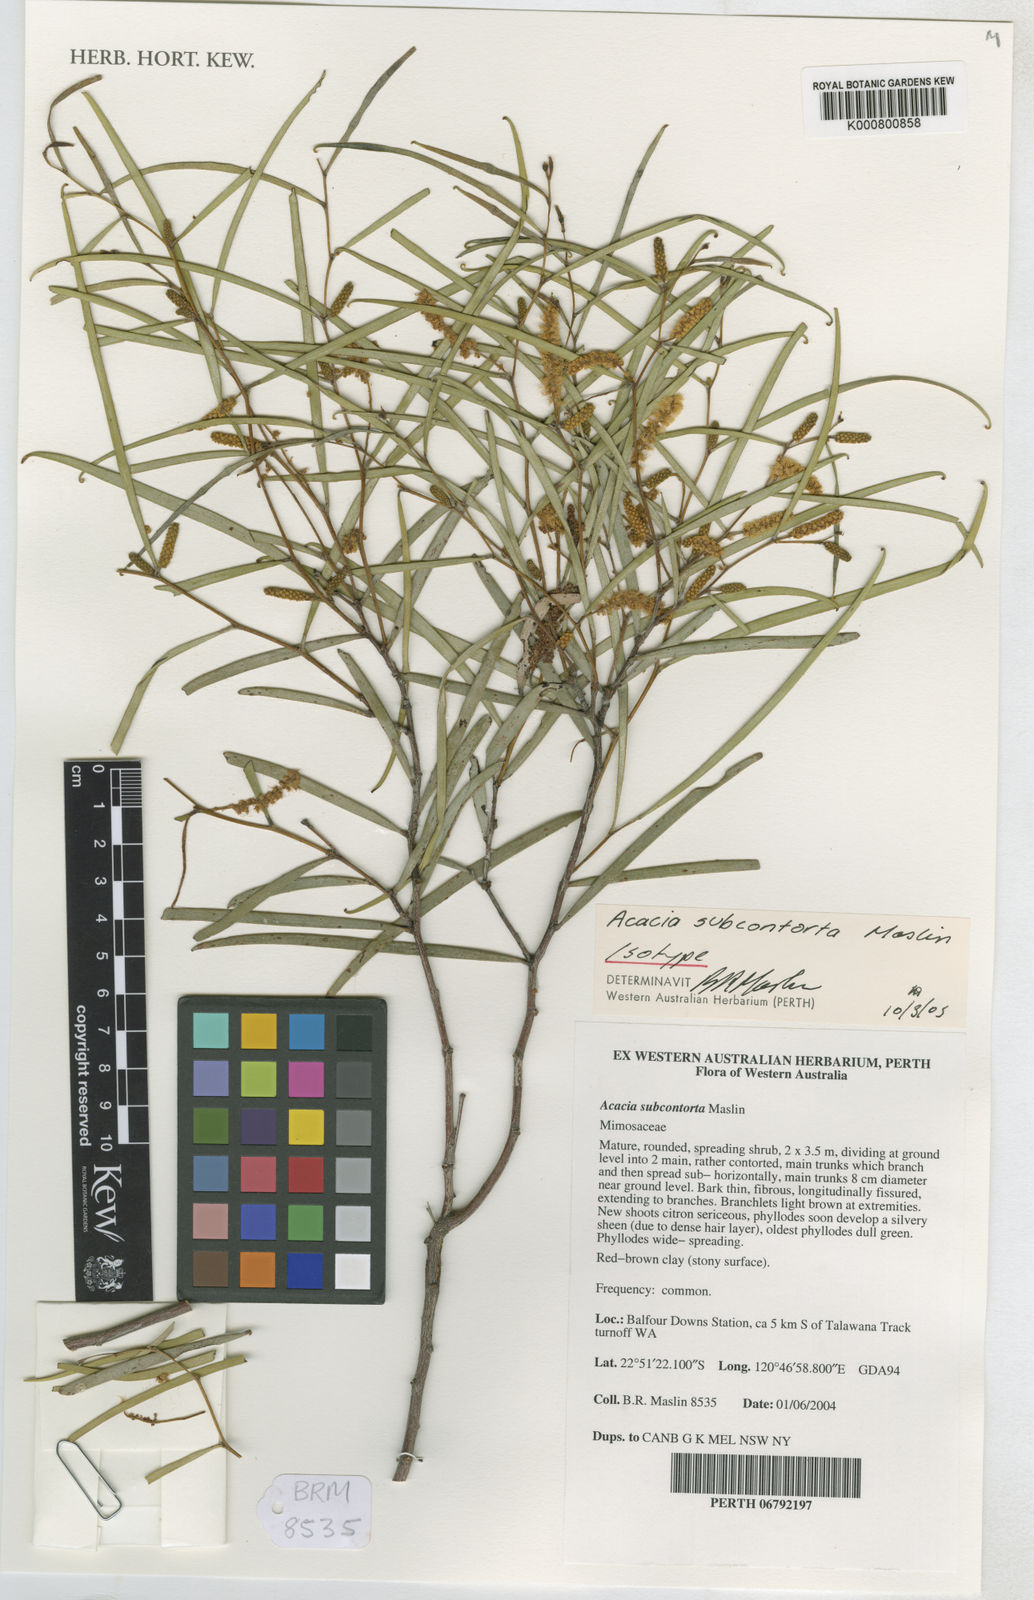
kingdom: Plantae
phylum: Tracheophyta
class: Magnoliopsida
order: Fabales
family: Fabaceae
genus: Acacia
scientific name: Acacia subcontorta
